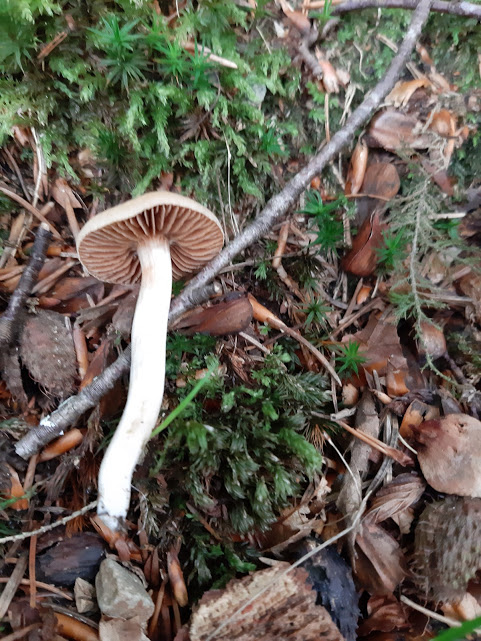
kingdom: Fungi
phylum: Basidiomycota
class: Agaricomycetes
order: Agaricales
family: Cortinariaceae
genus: Cortinarius
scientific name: Cortinarius
